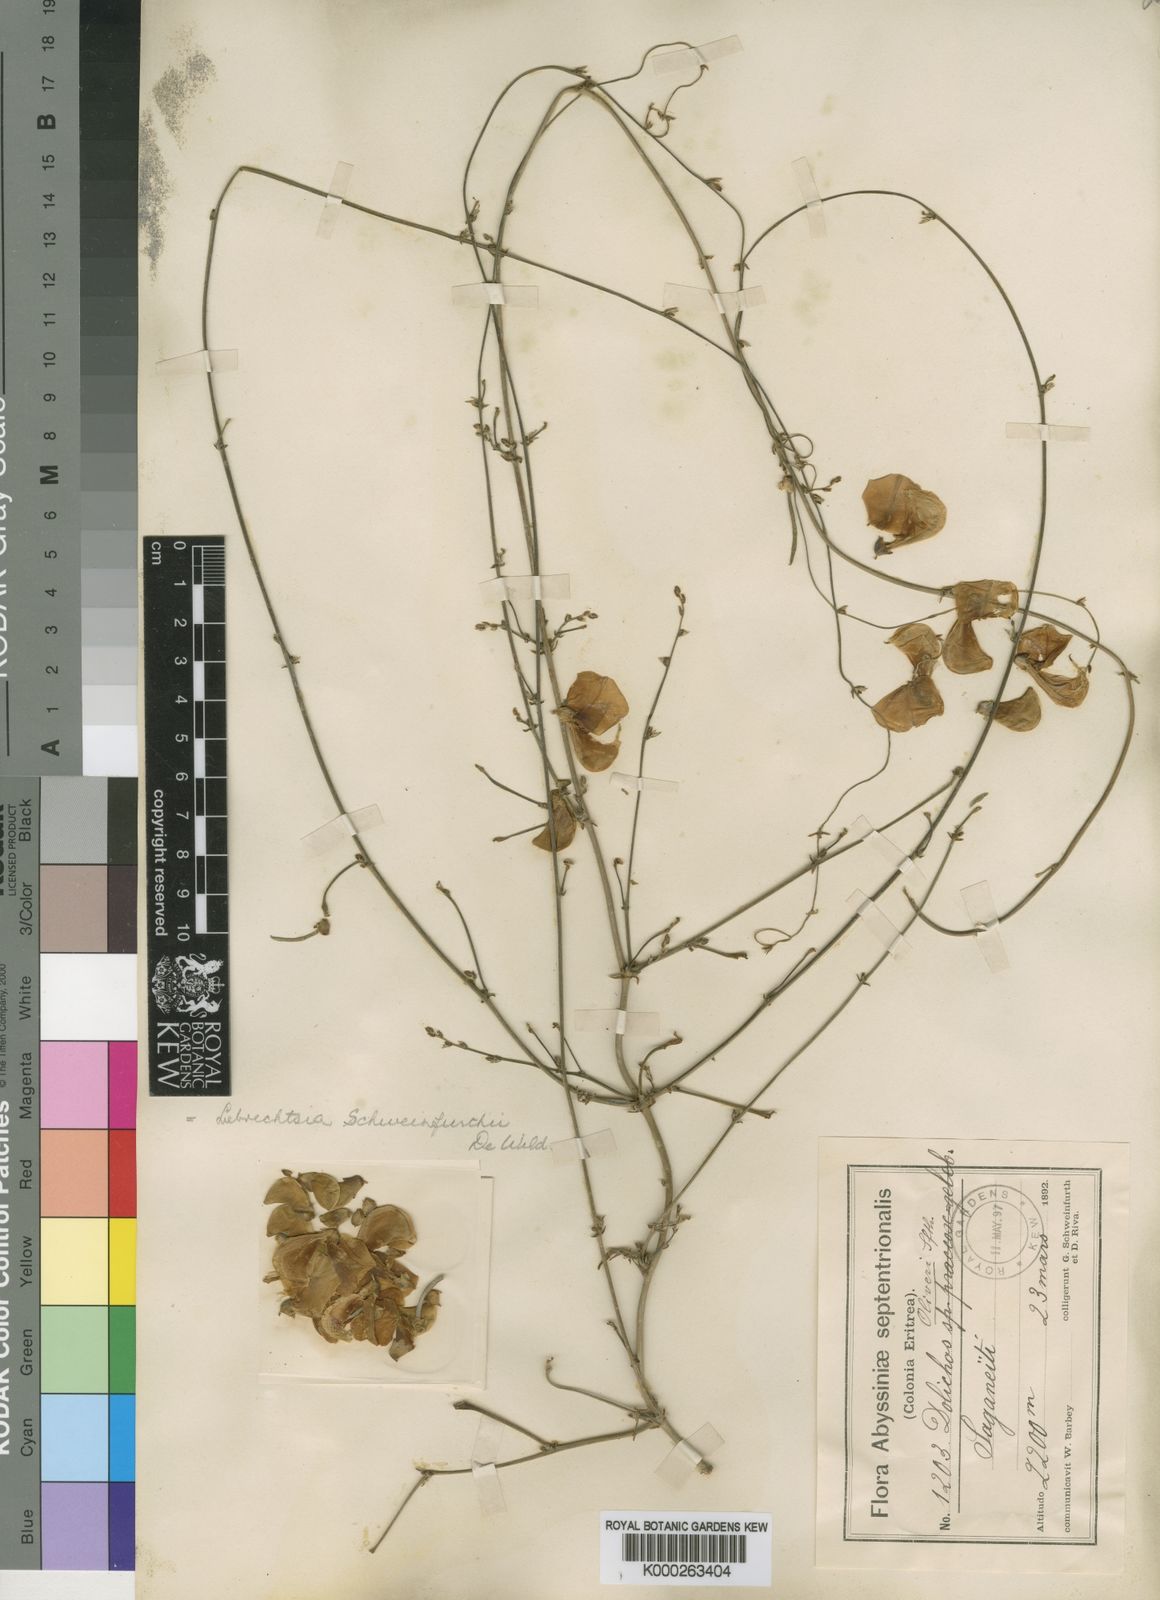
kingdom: Plantae
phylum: Tracheophyta
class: Magnoliopsida
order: Fabales
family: Fabaceae
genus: Vigna
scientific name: Vigna debanensis
